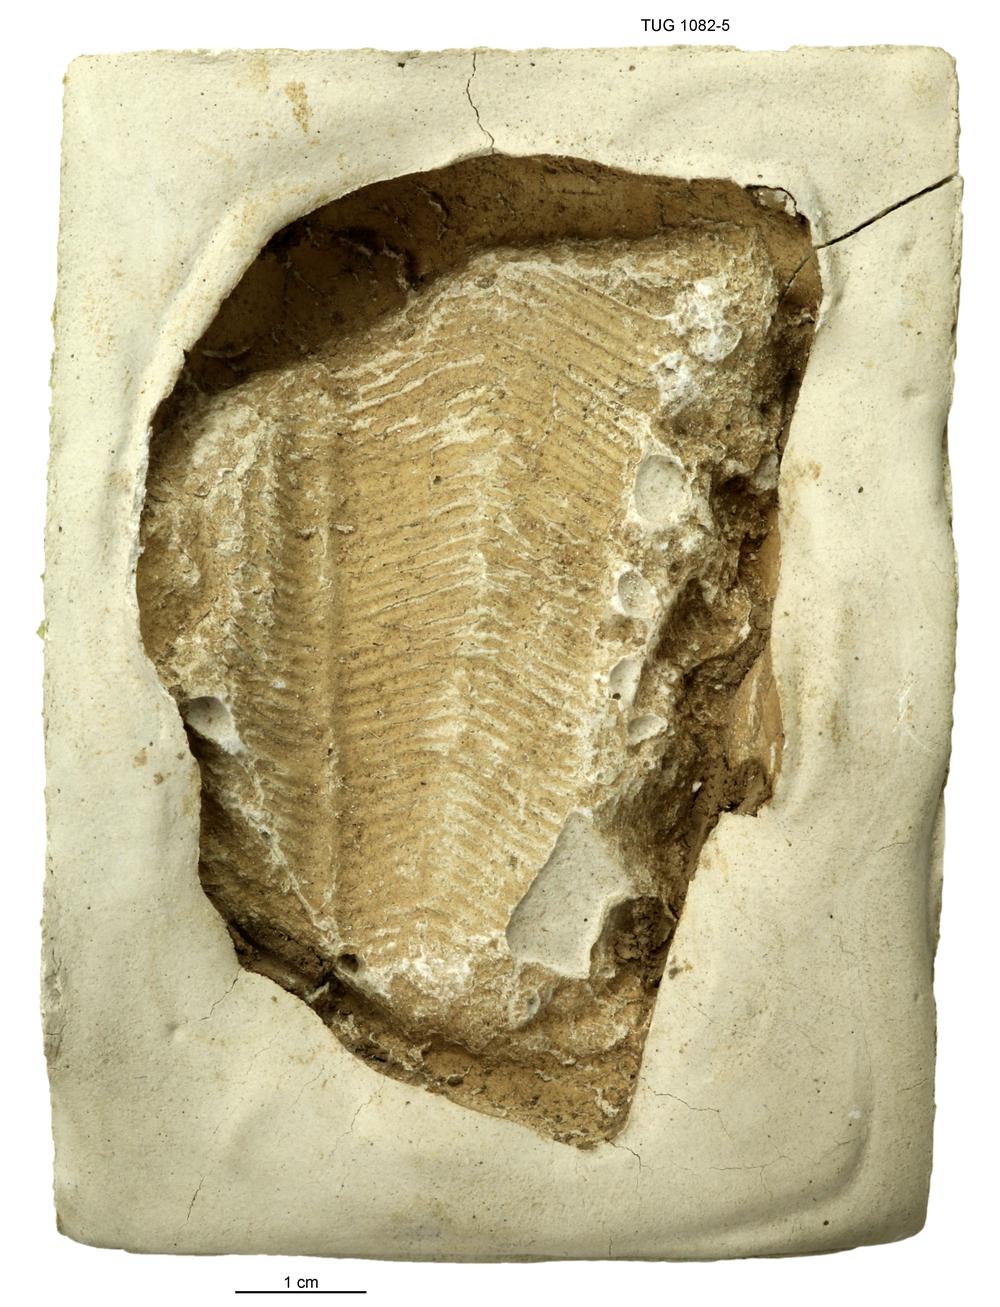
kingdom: Animalia
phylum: Echinodermata
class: Crinoidea
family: Eucalyptocrinitidae
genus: Eucalyptocrinites
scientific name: Eucalyptocrinites
